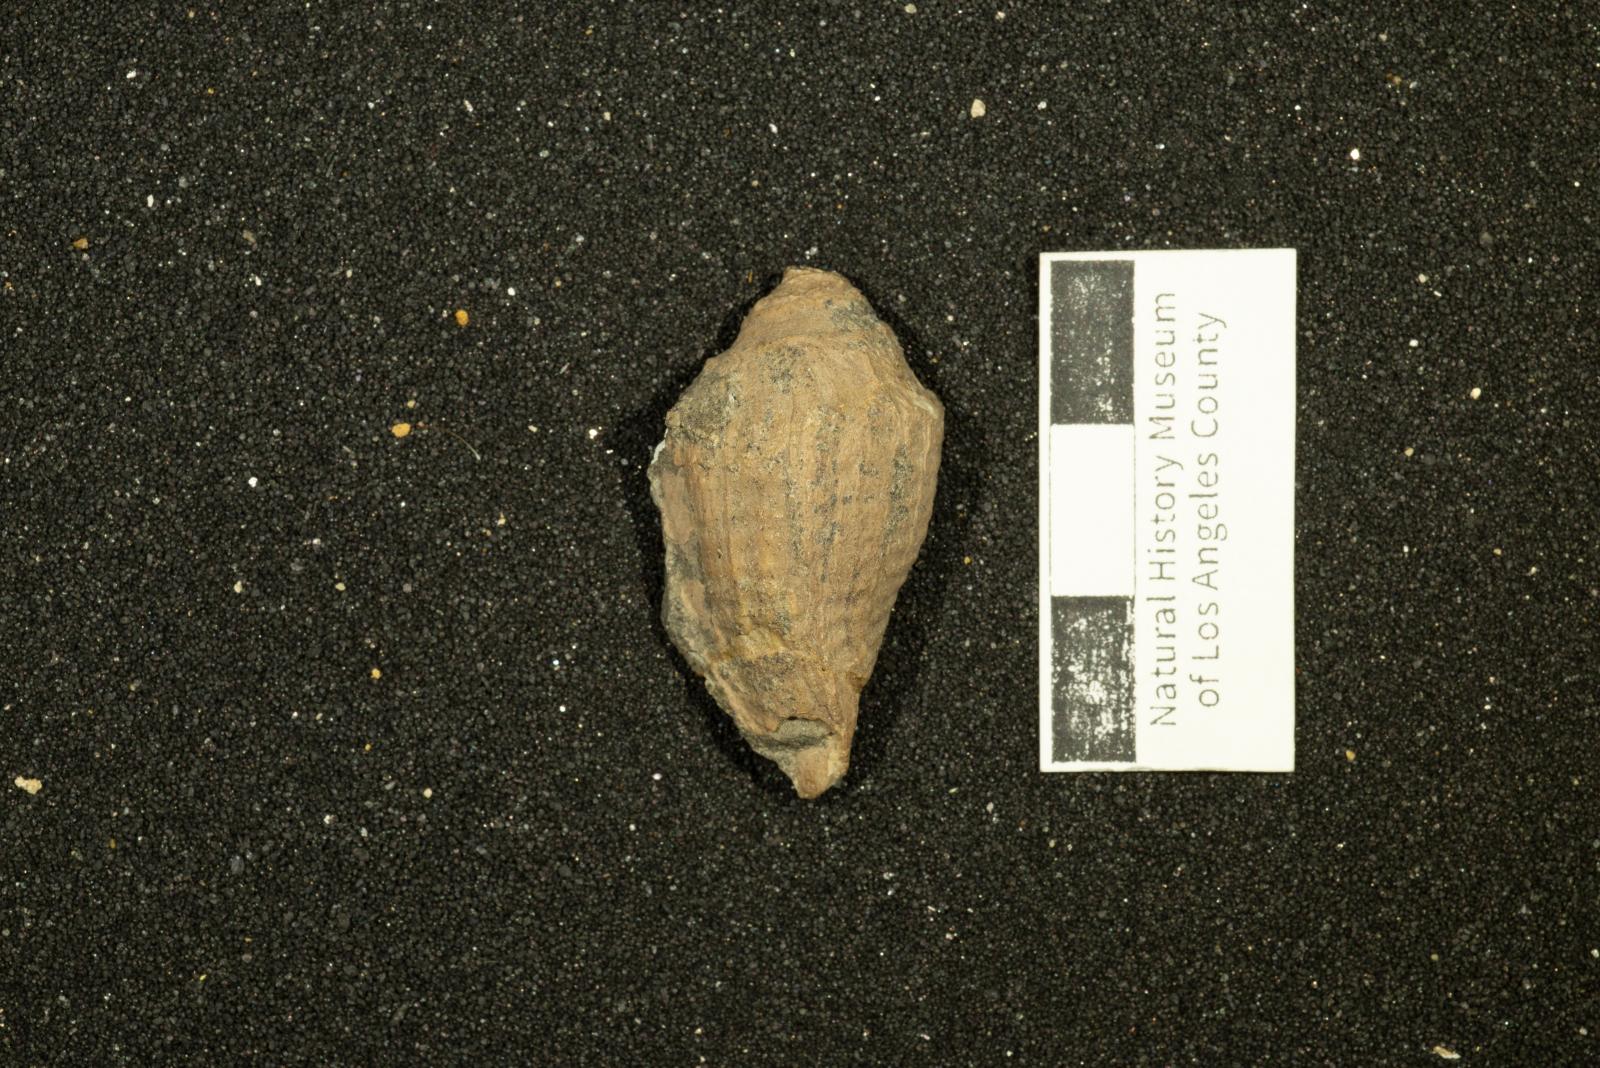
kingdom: Animalia
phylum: Mollusca
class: Gastropoda
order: Neogastropoda
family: Volutidae
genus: Konistra
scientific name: Konistra Gosavia biconica
